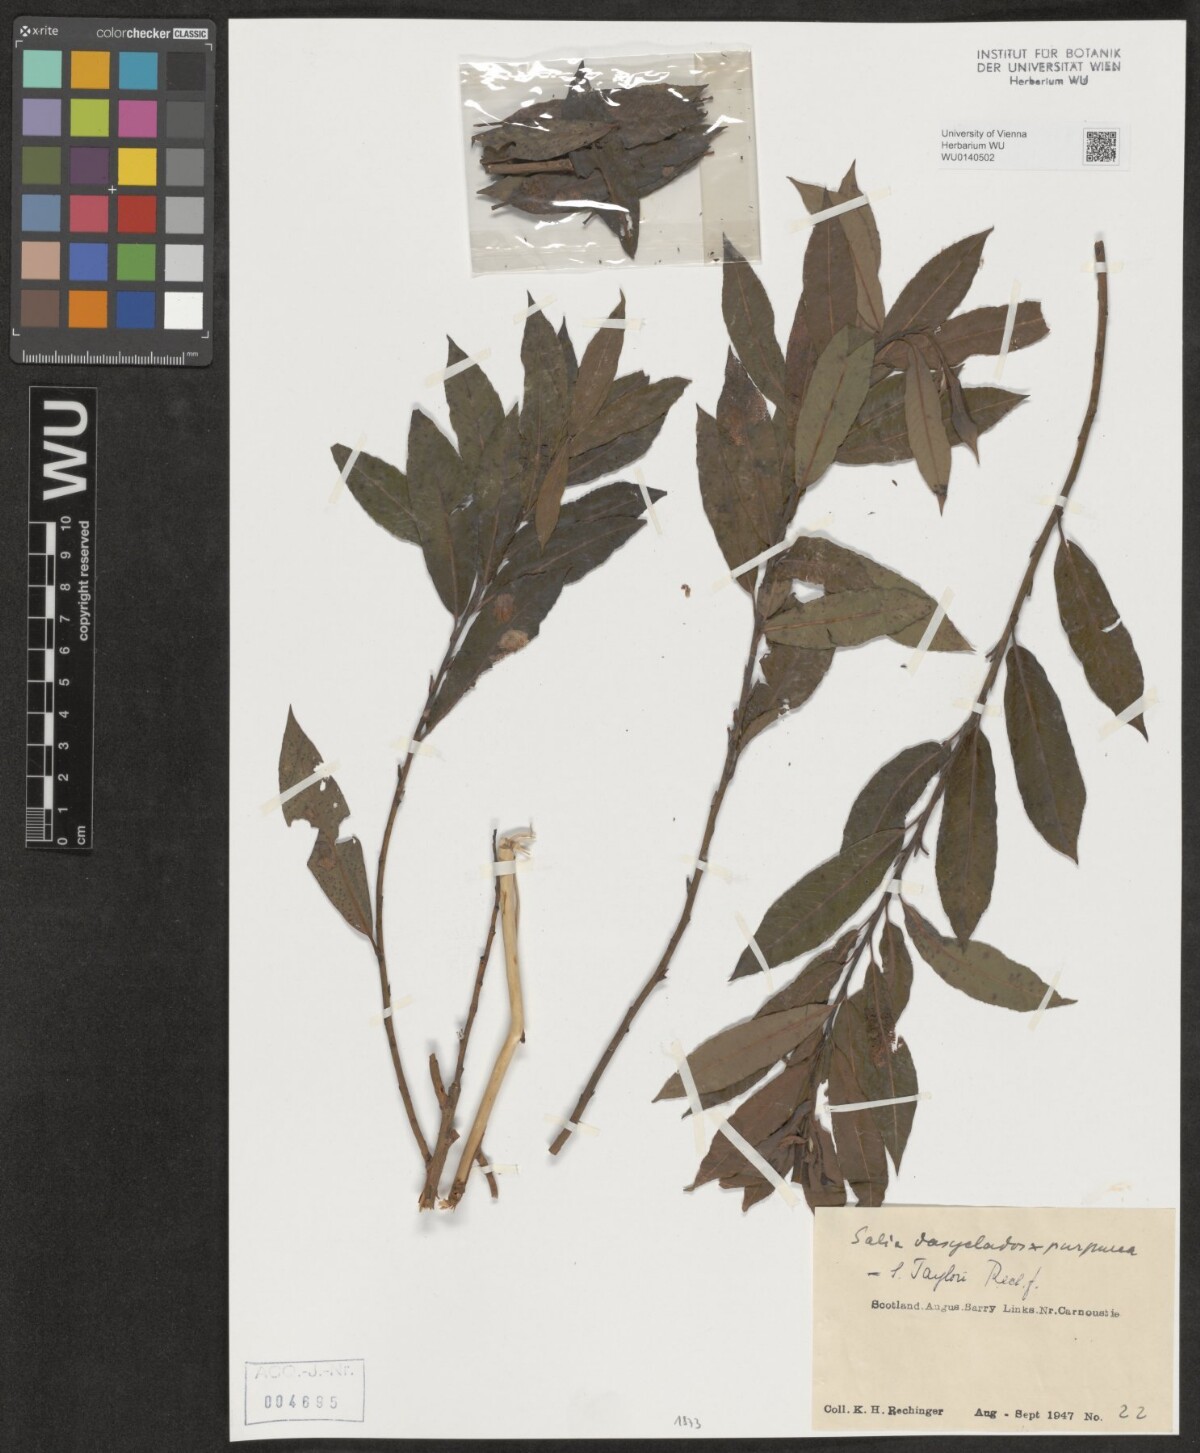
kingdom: Plantae
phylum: Tracheophyta
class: Magnoliopsida
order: Malpighiales
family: Salicaceae
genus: Salix
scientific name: Salix taylorii
